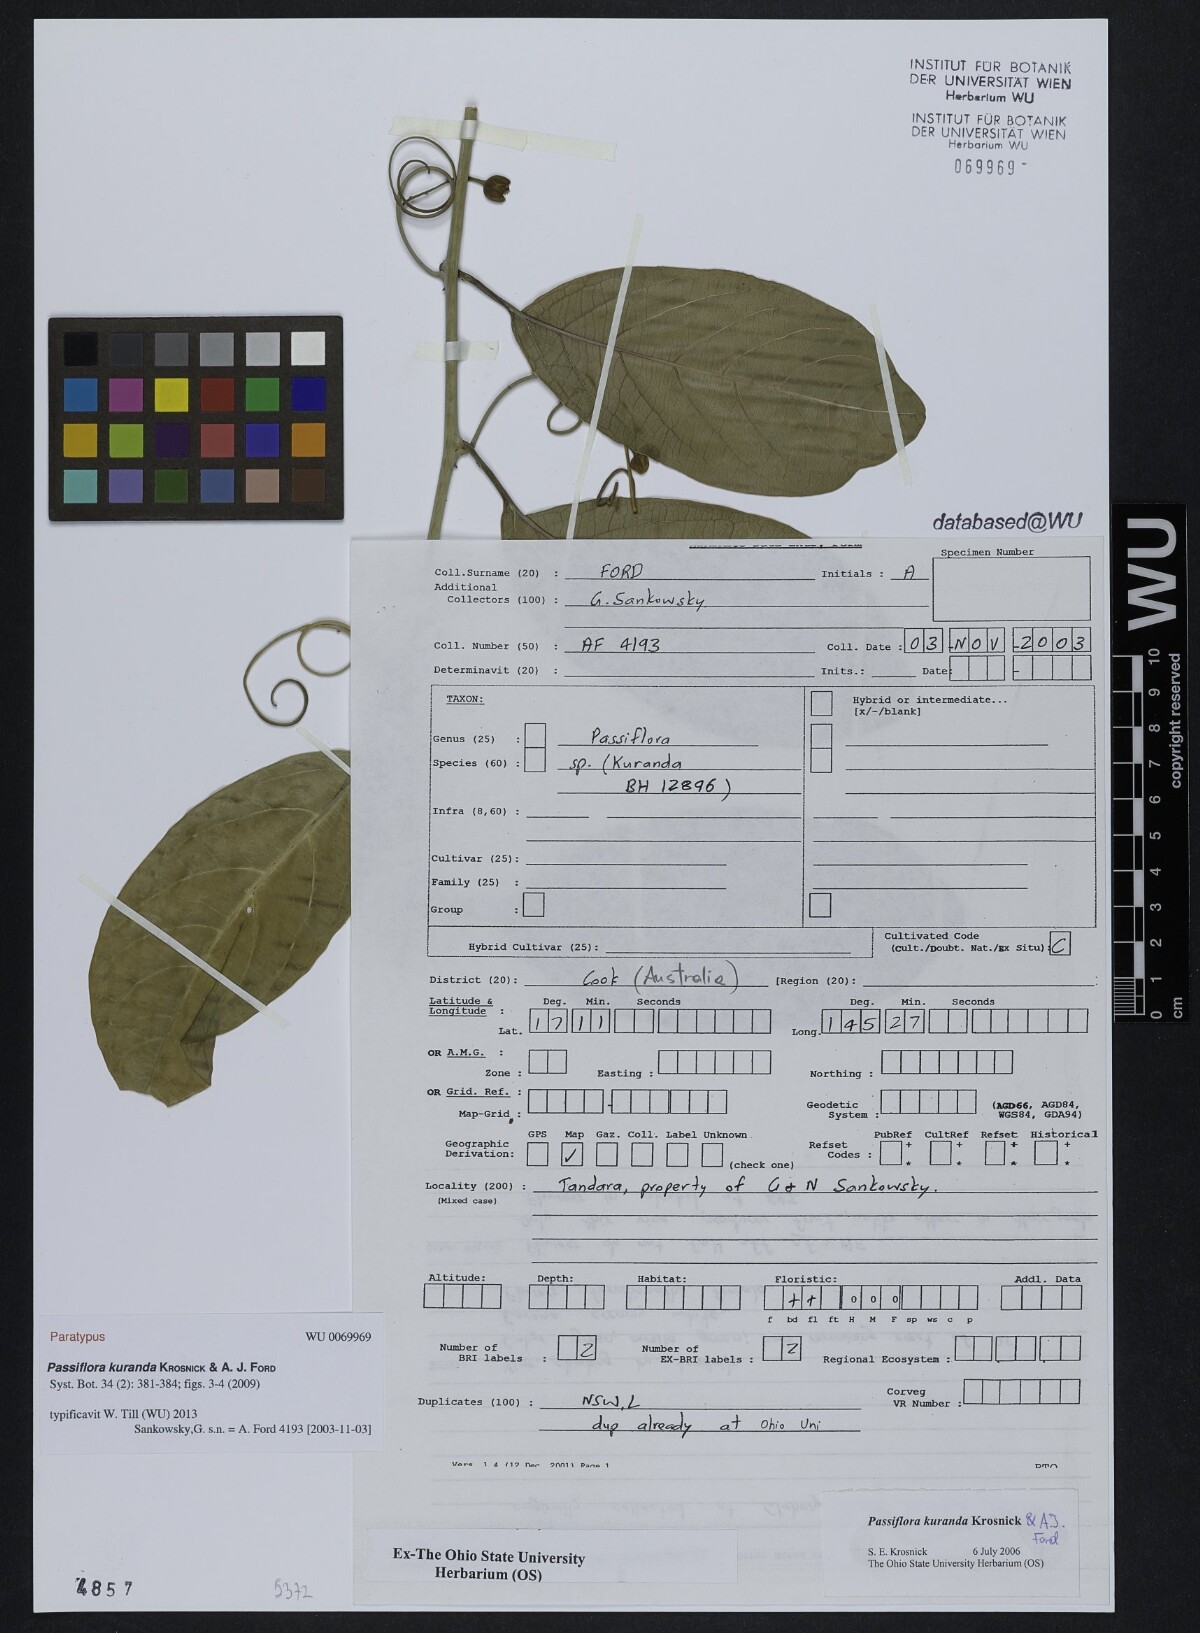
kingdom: Plantae
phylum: Tracheophyta
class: Magnoliopsida
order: Malpighiales
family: Passifloraceae
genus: Passiflora
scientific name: Passiflora kuranda
